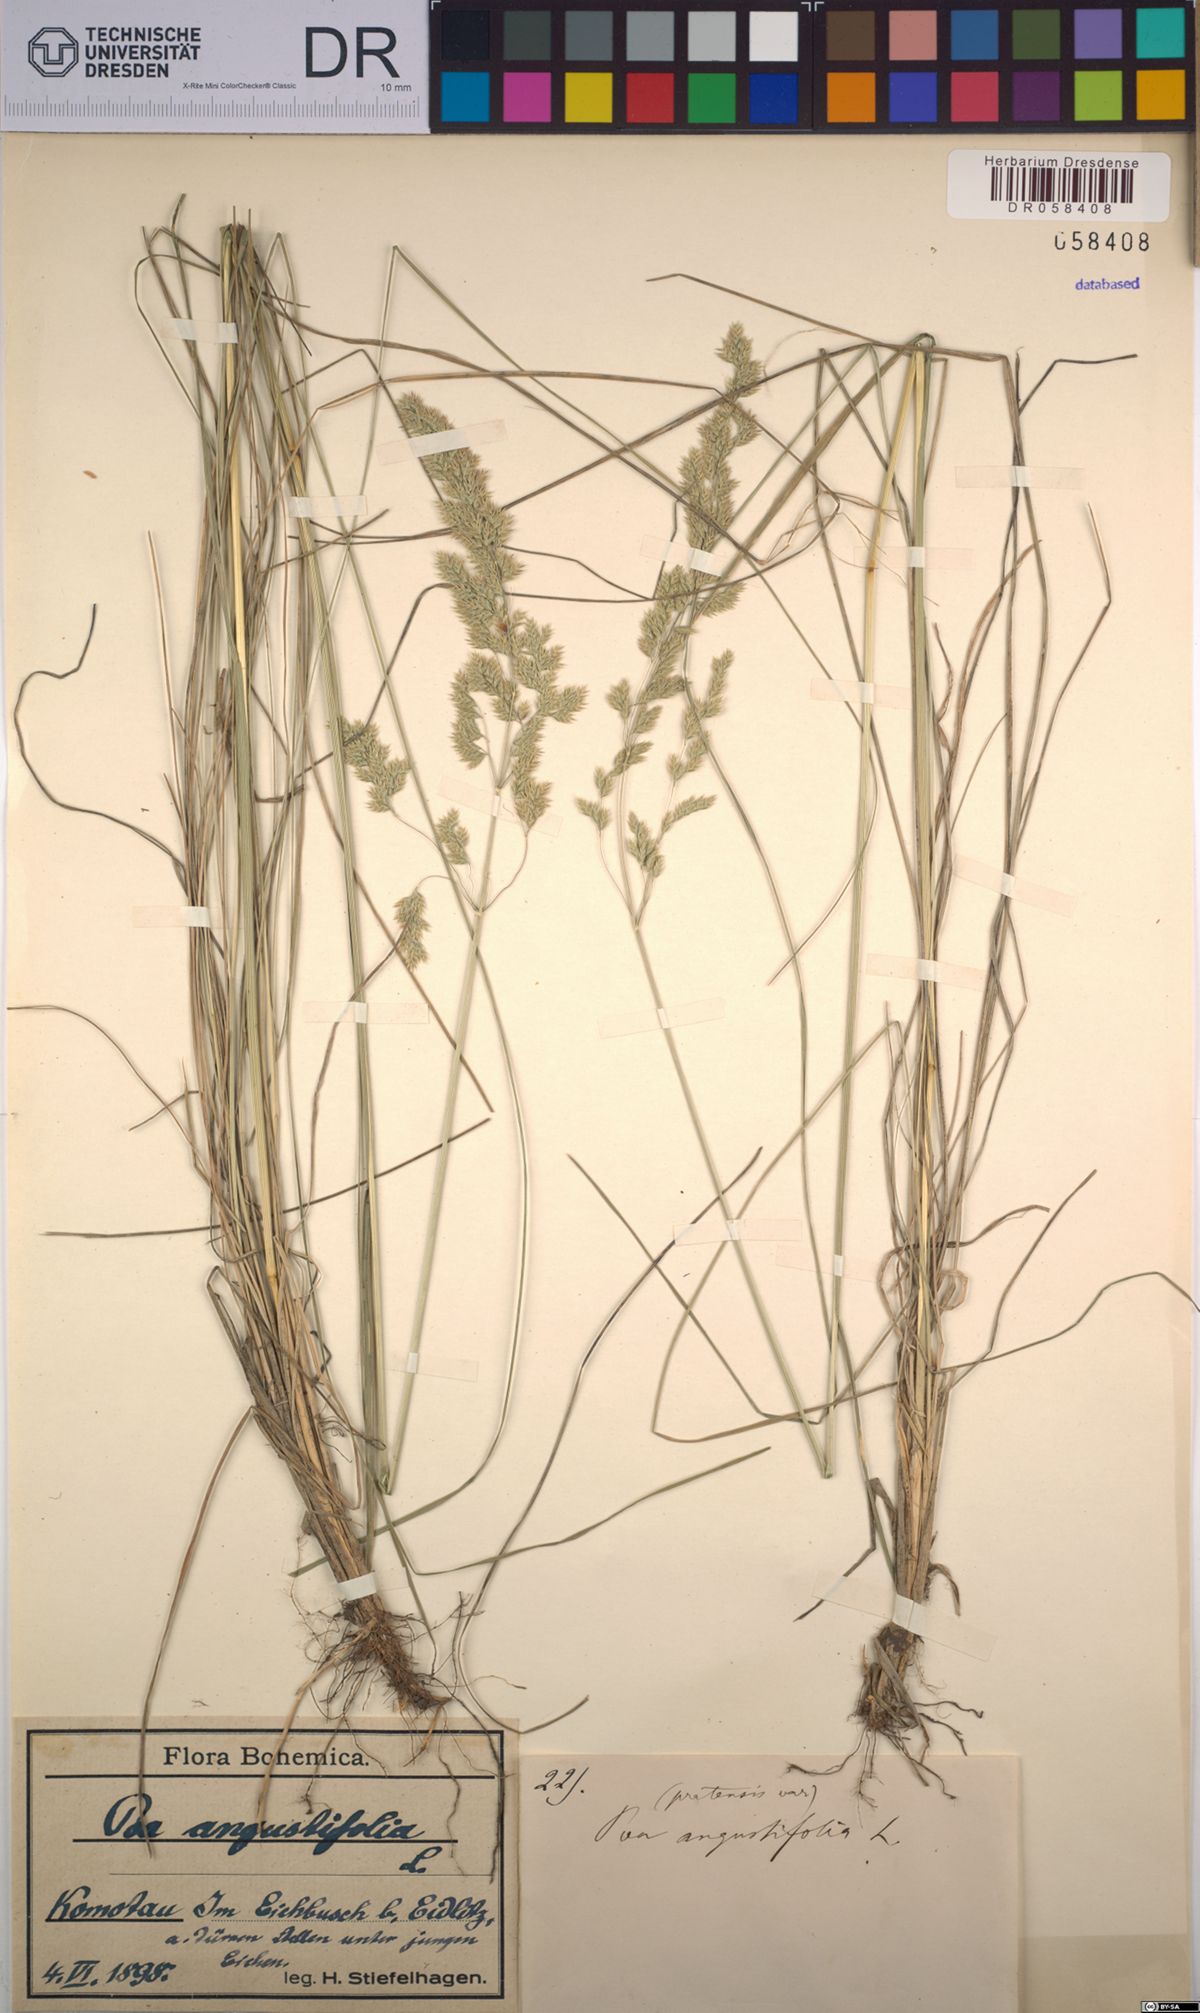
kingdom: Plantae
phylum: Tracheophyta
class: Liliopsida
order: Poales
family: Poaceae
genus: Poa
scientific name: Poa angustifolia
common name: Narrow-leaved meadow-grass
